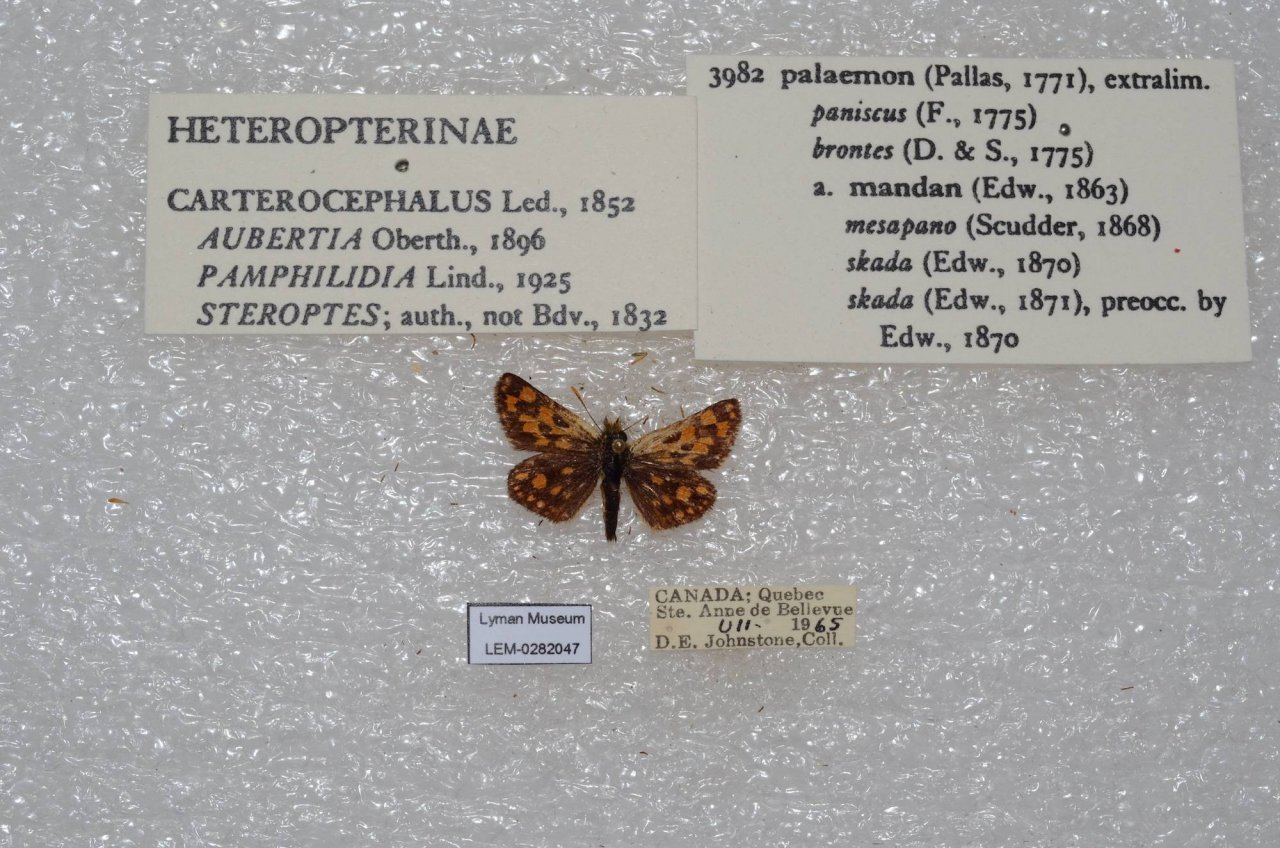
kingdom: Animalia
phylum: Arthropoda
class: Insecta
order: Lepidoptera
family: Hesperiidae
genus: Carterocephalus
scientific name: Carterocephalus palaemon
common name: Chequered Skipper
